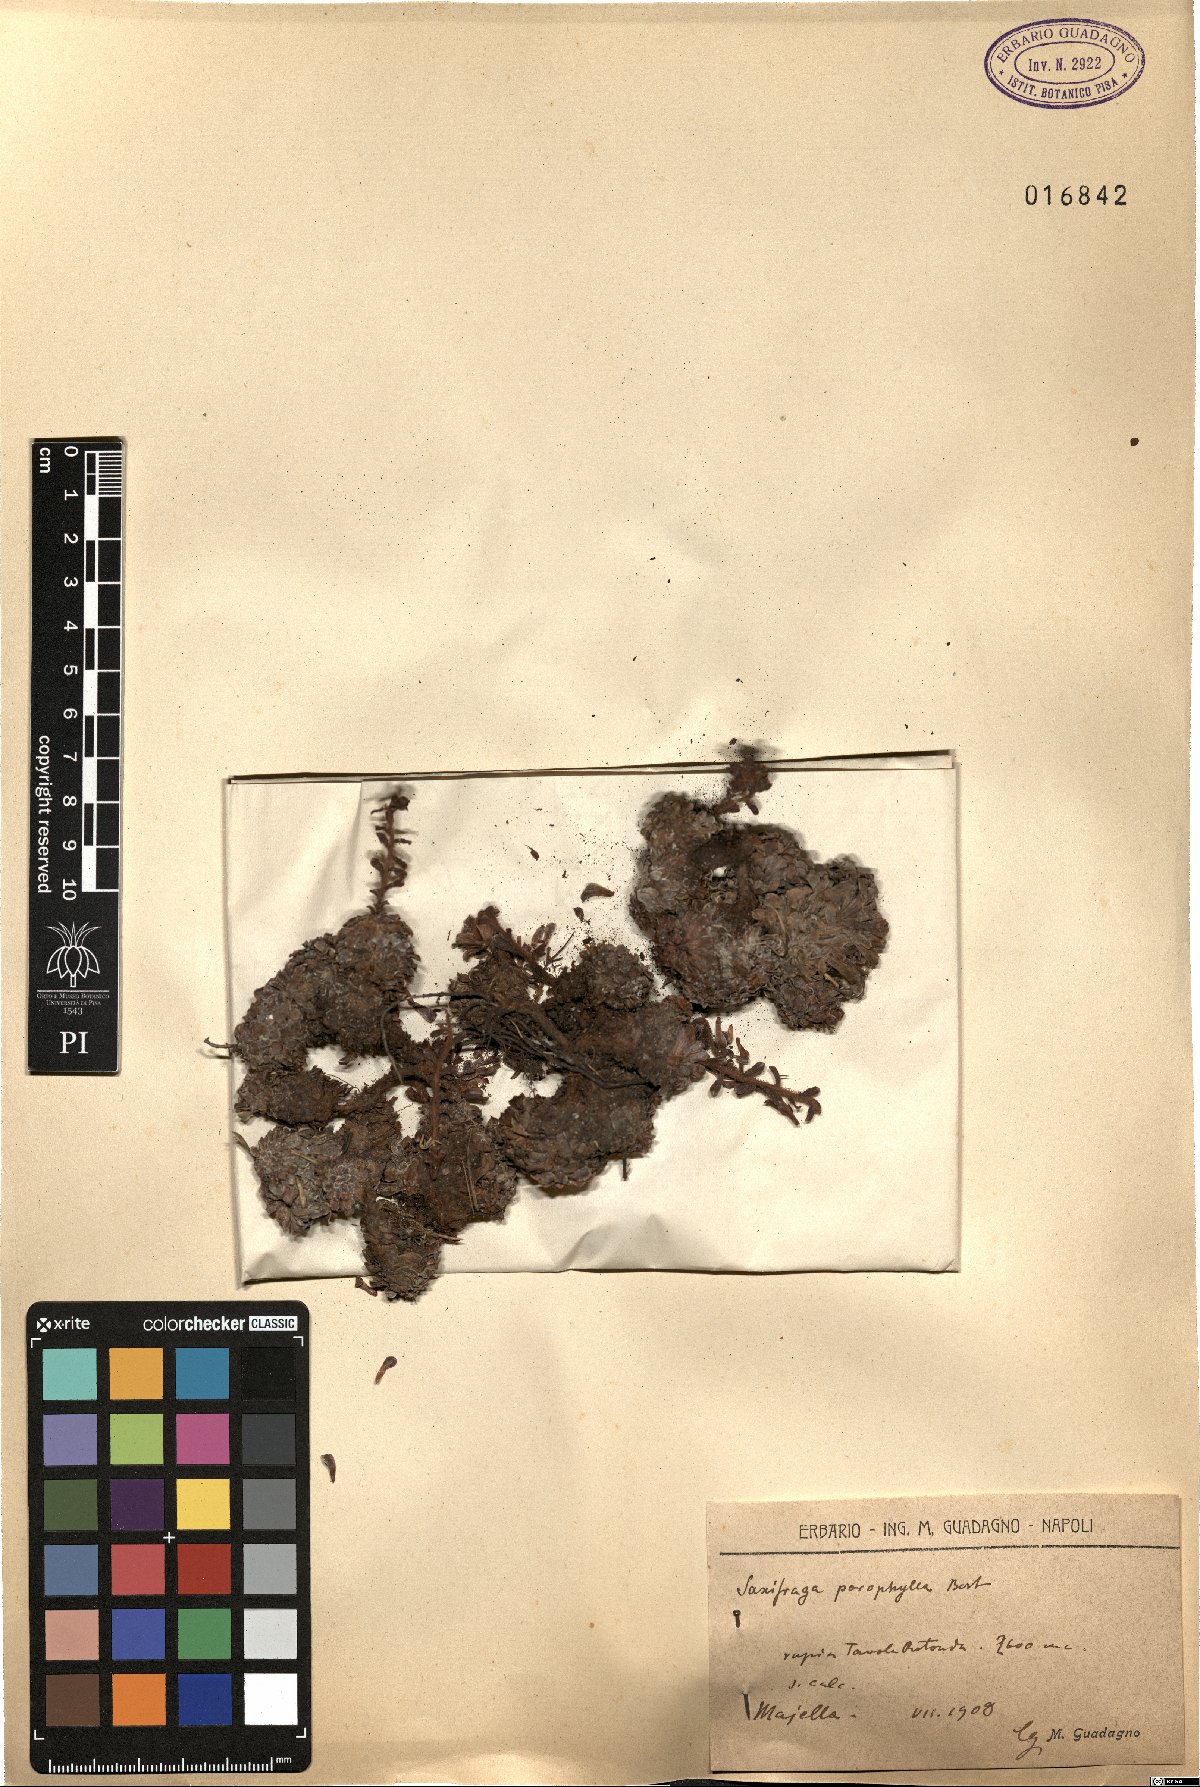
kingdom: Plantae
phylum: Tracheophyta
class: Magnoliopsida
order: Saxifragales
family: Saxifragaceae
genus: Saxifraga
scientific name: Saxifraga porophylla
